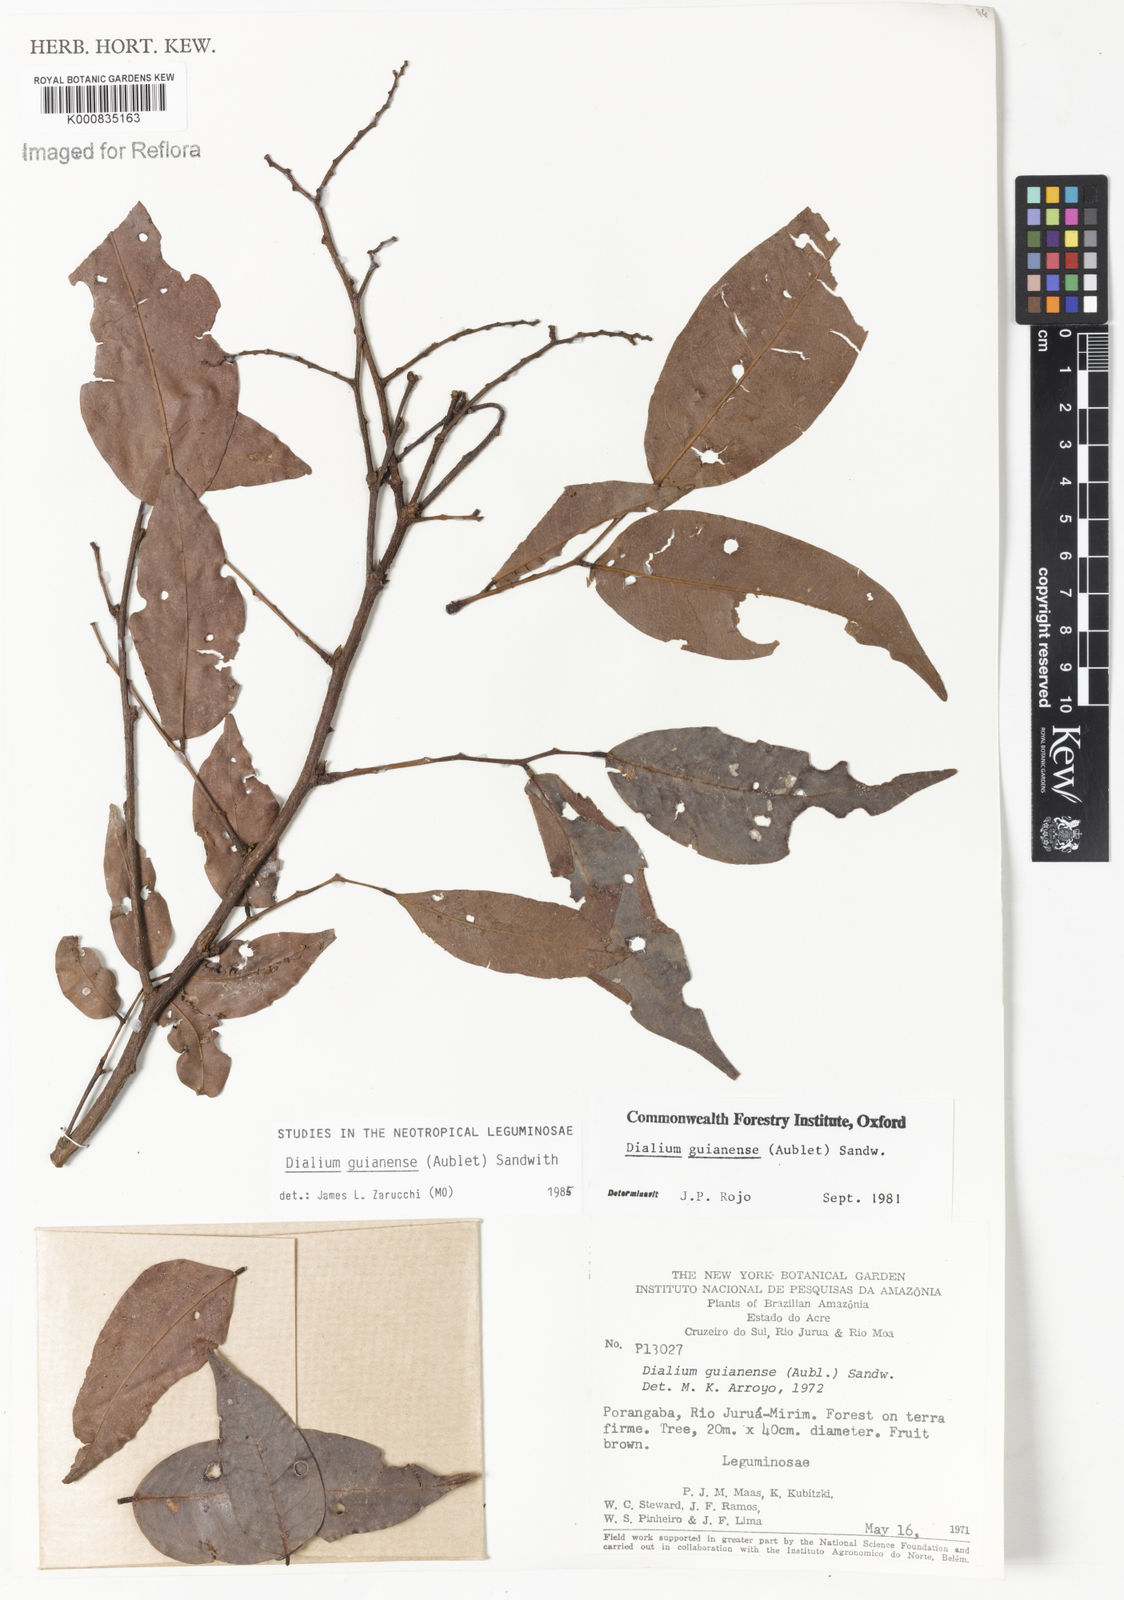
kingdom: Plantae
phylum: Tracheophyta
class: Magnoliopsida
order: Fabales
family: Fabaceae
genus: Dialium
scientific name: Dialium guianense
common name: Ironwood
